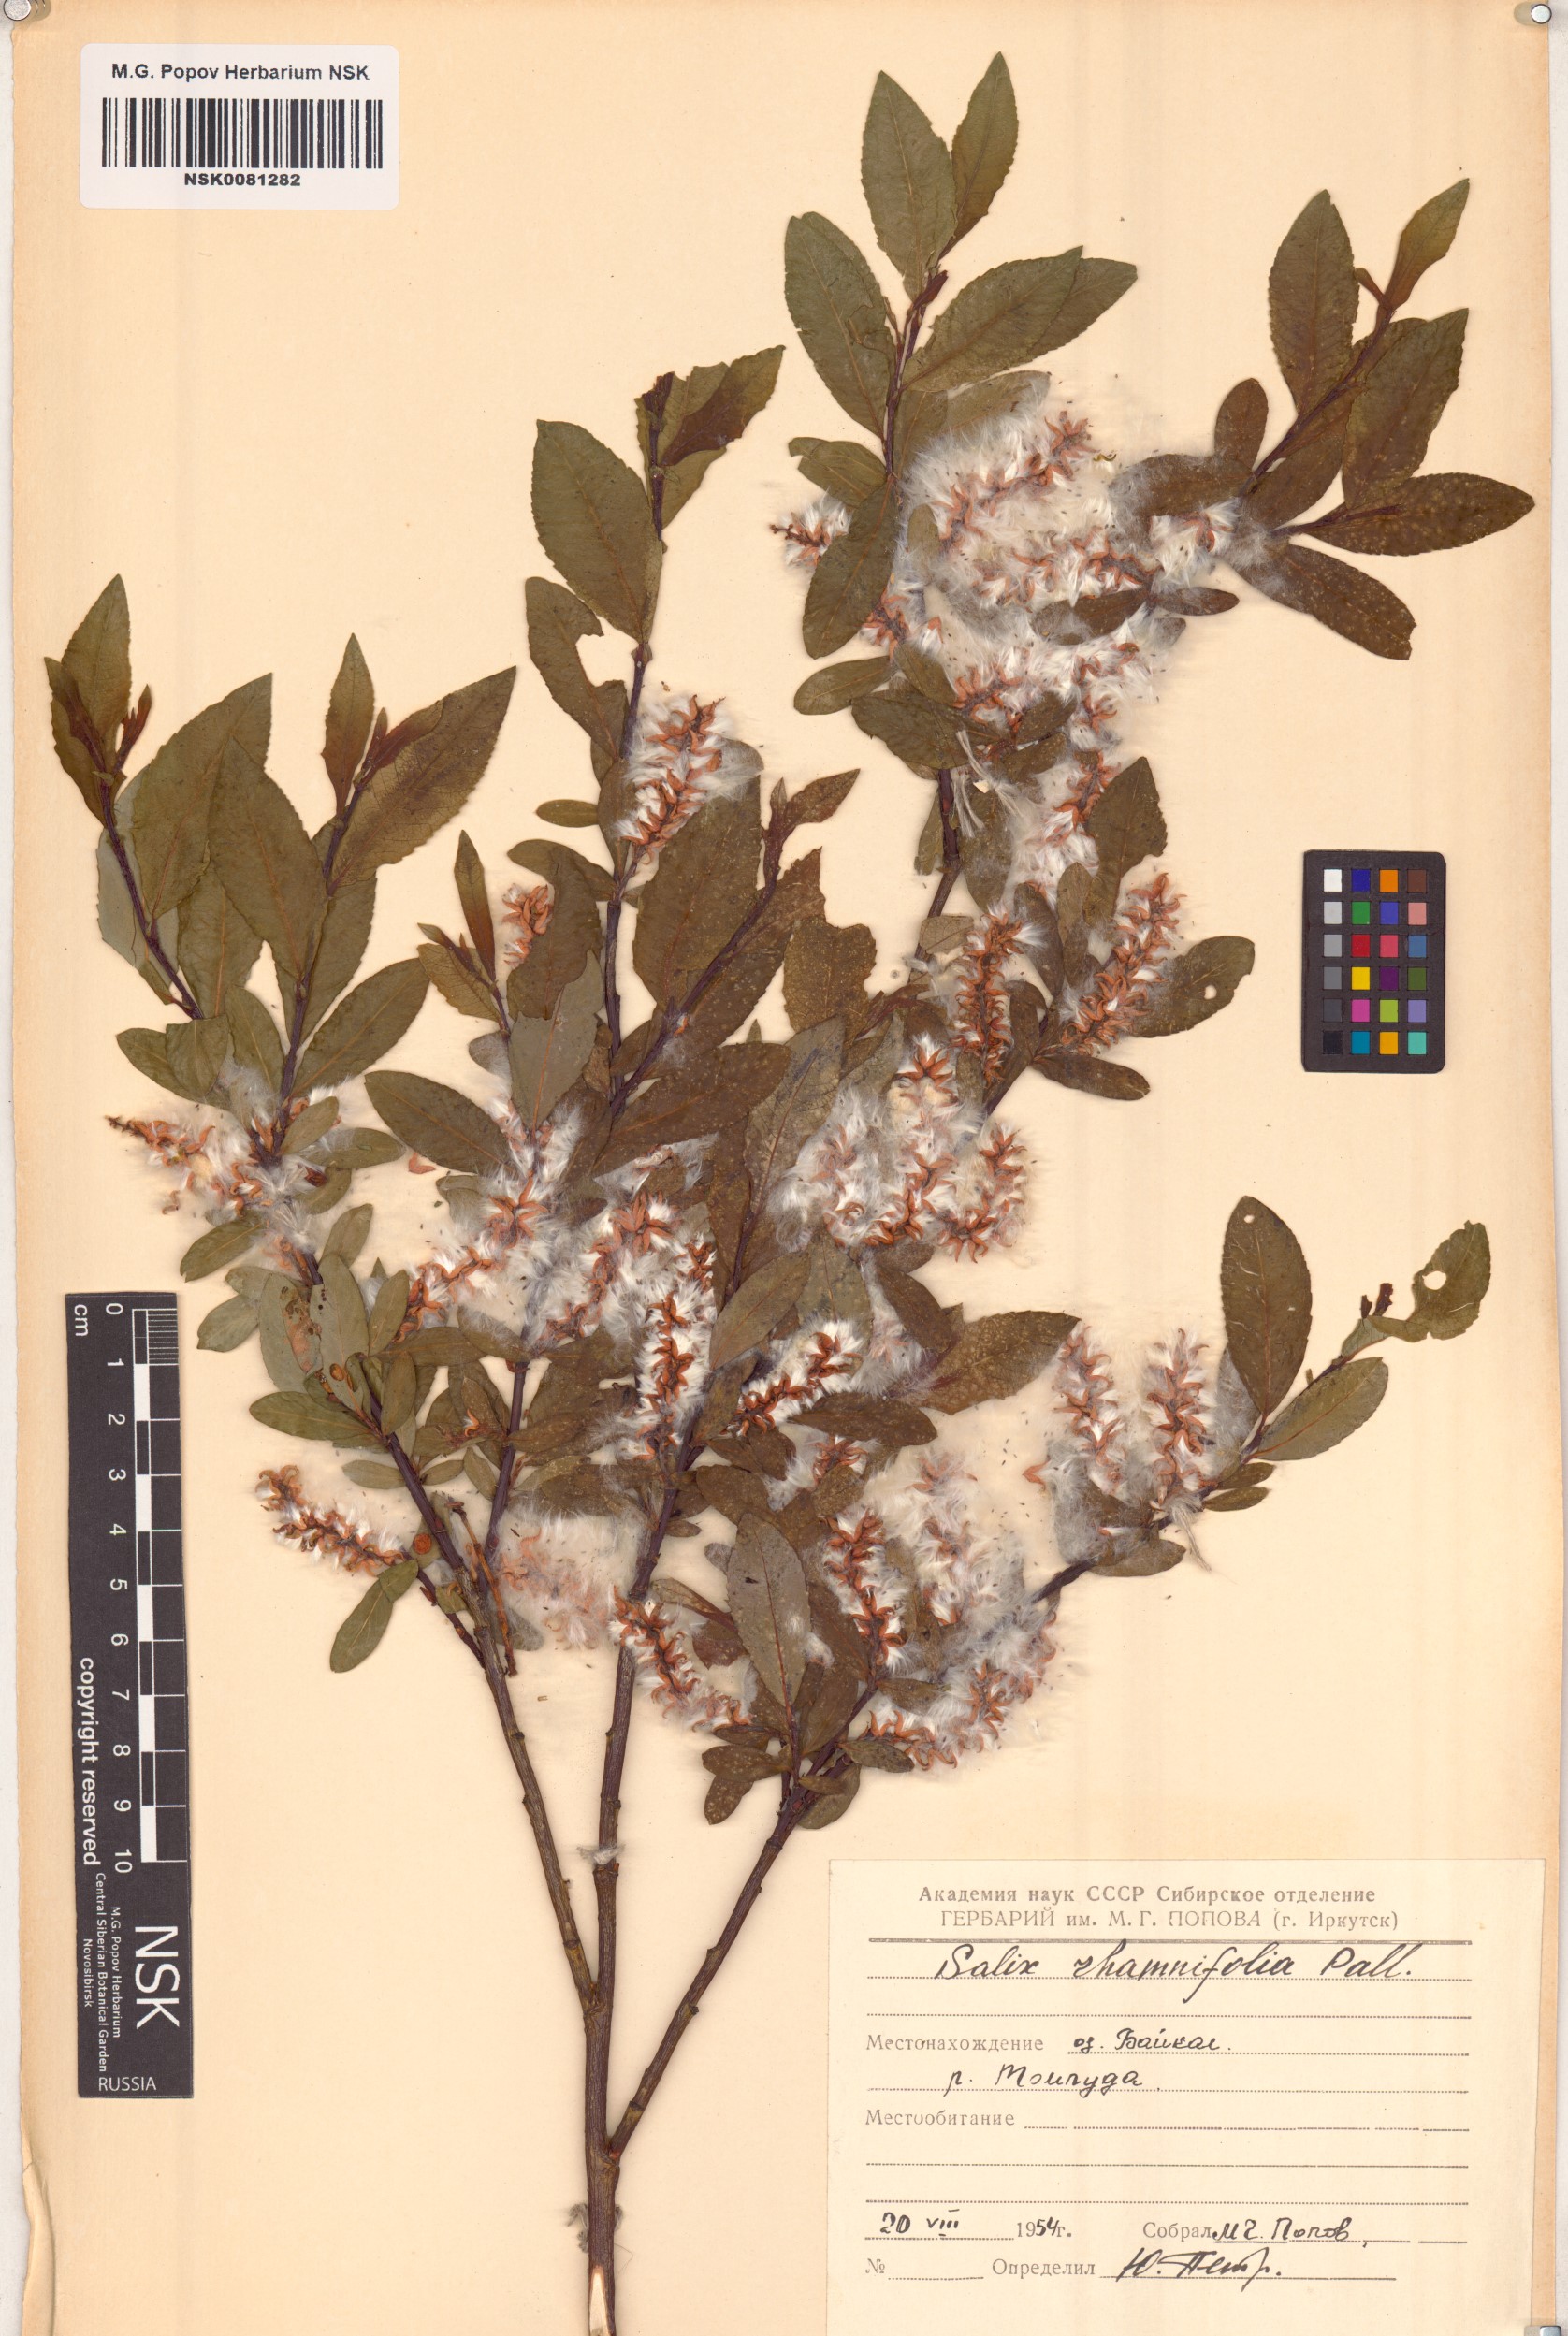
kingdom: Plantae
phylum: Tracheophyta
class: Magnoliopsida
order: Malpighiales
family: Salicaceae
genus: Salix
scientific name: Salix rhamnifolia
